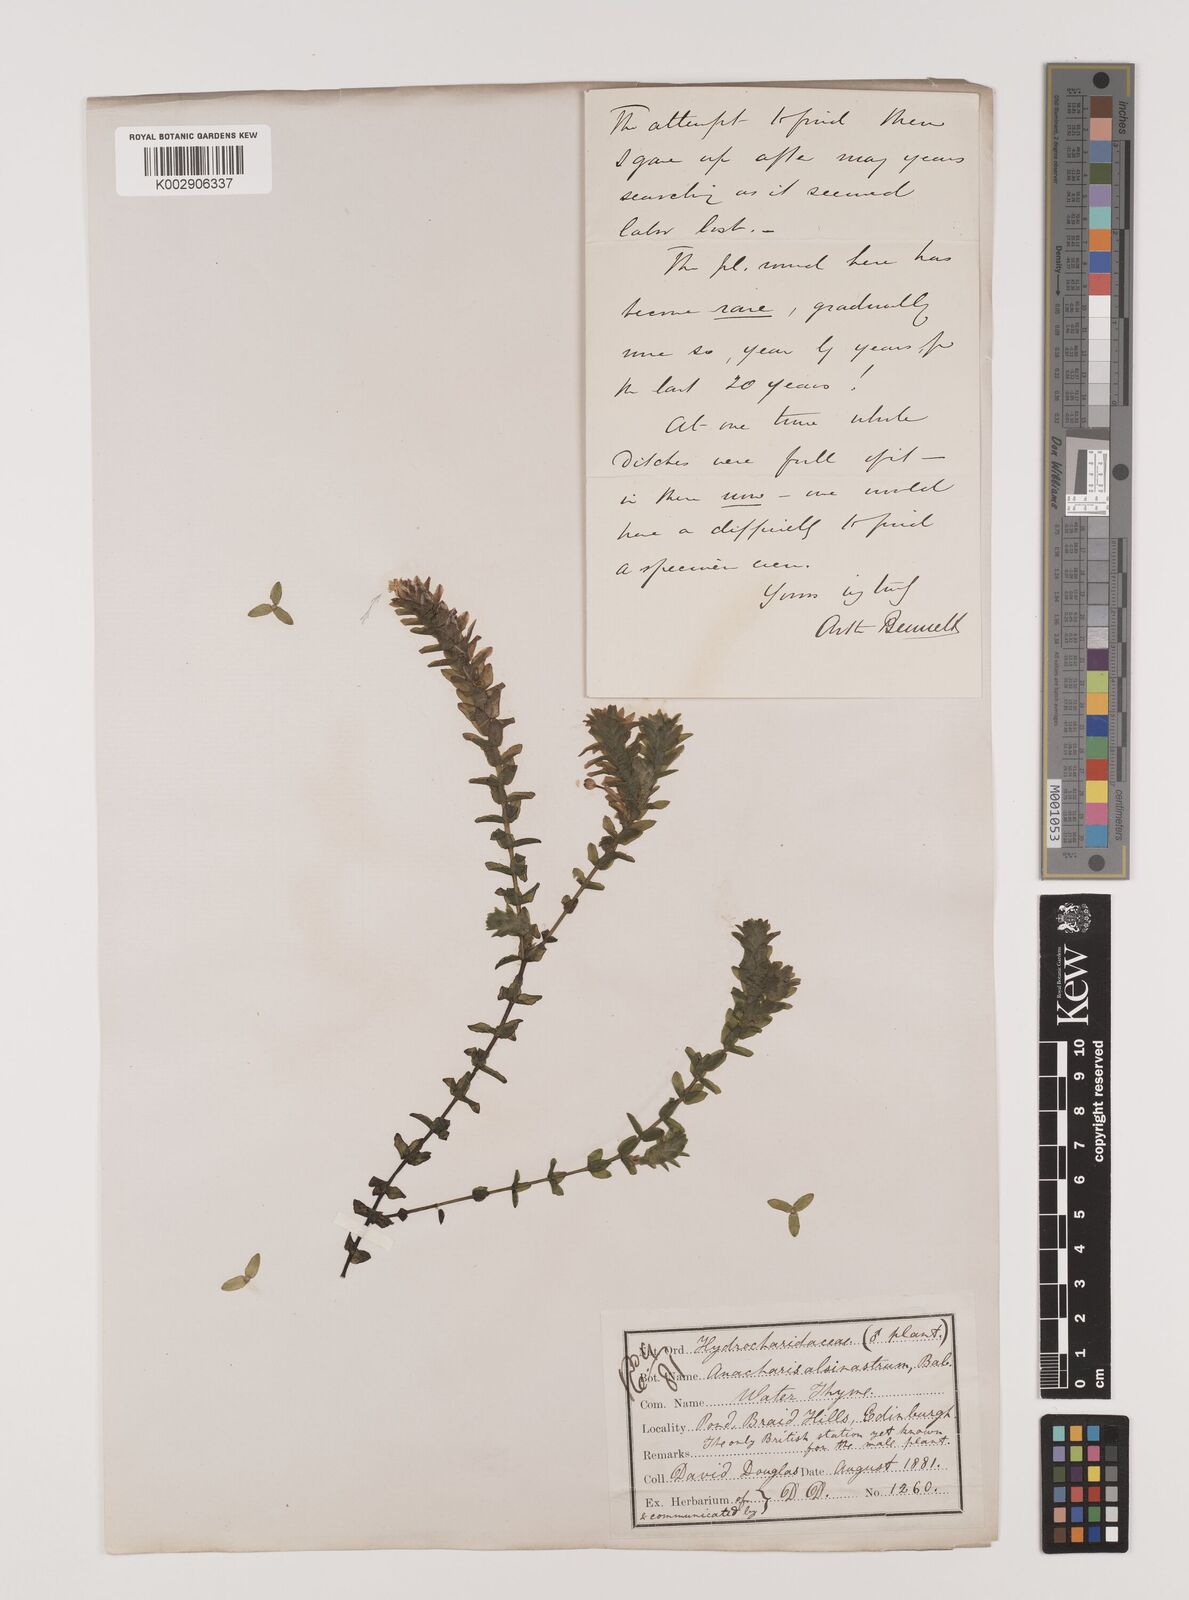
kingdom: Plantae
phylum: Tracheophyta
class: Liliopsida
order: Alismatales
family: Hydrocharitaceae
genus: Elodea
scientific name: Elodea canadensis
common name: Canadian waterweed
